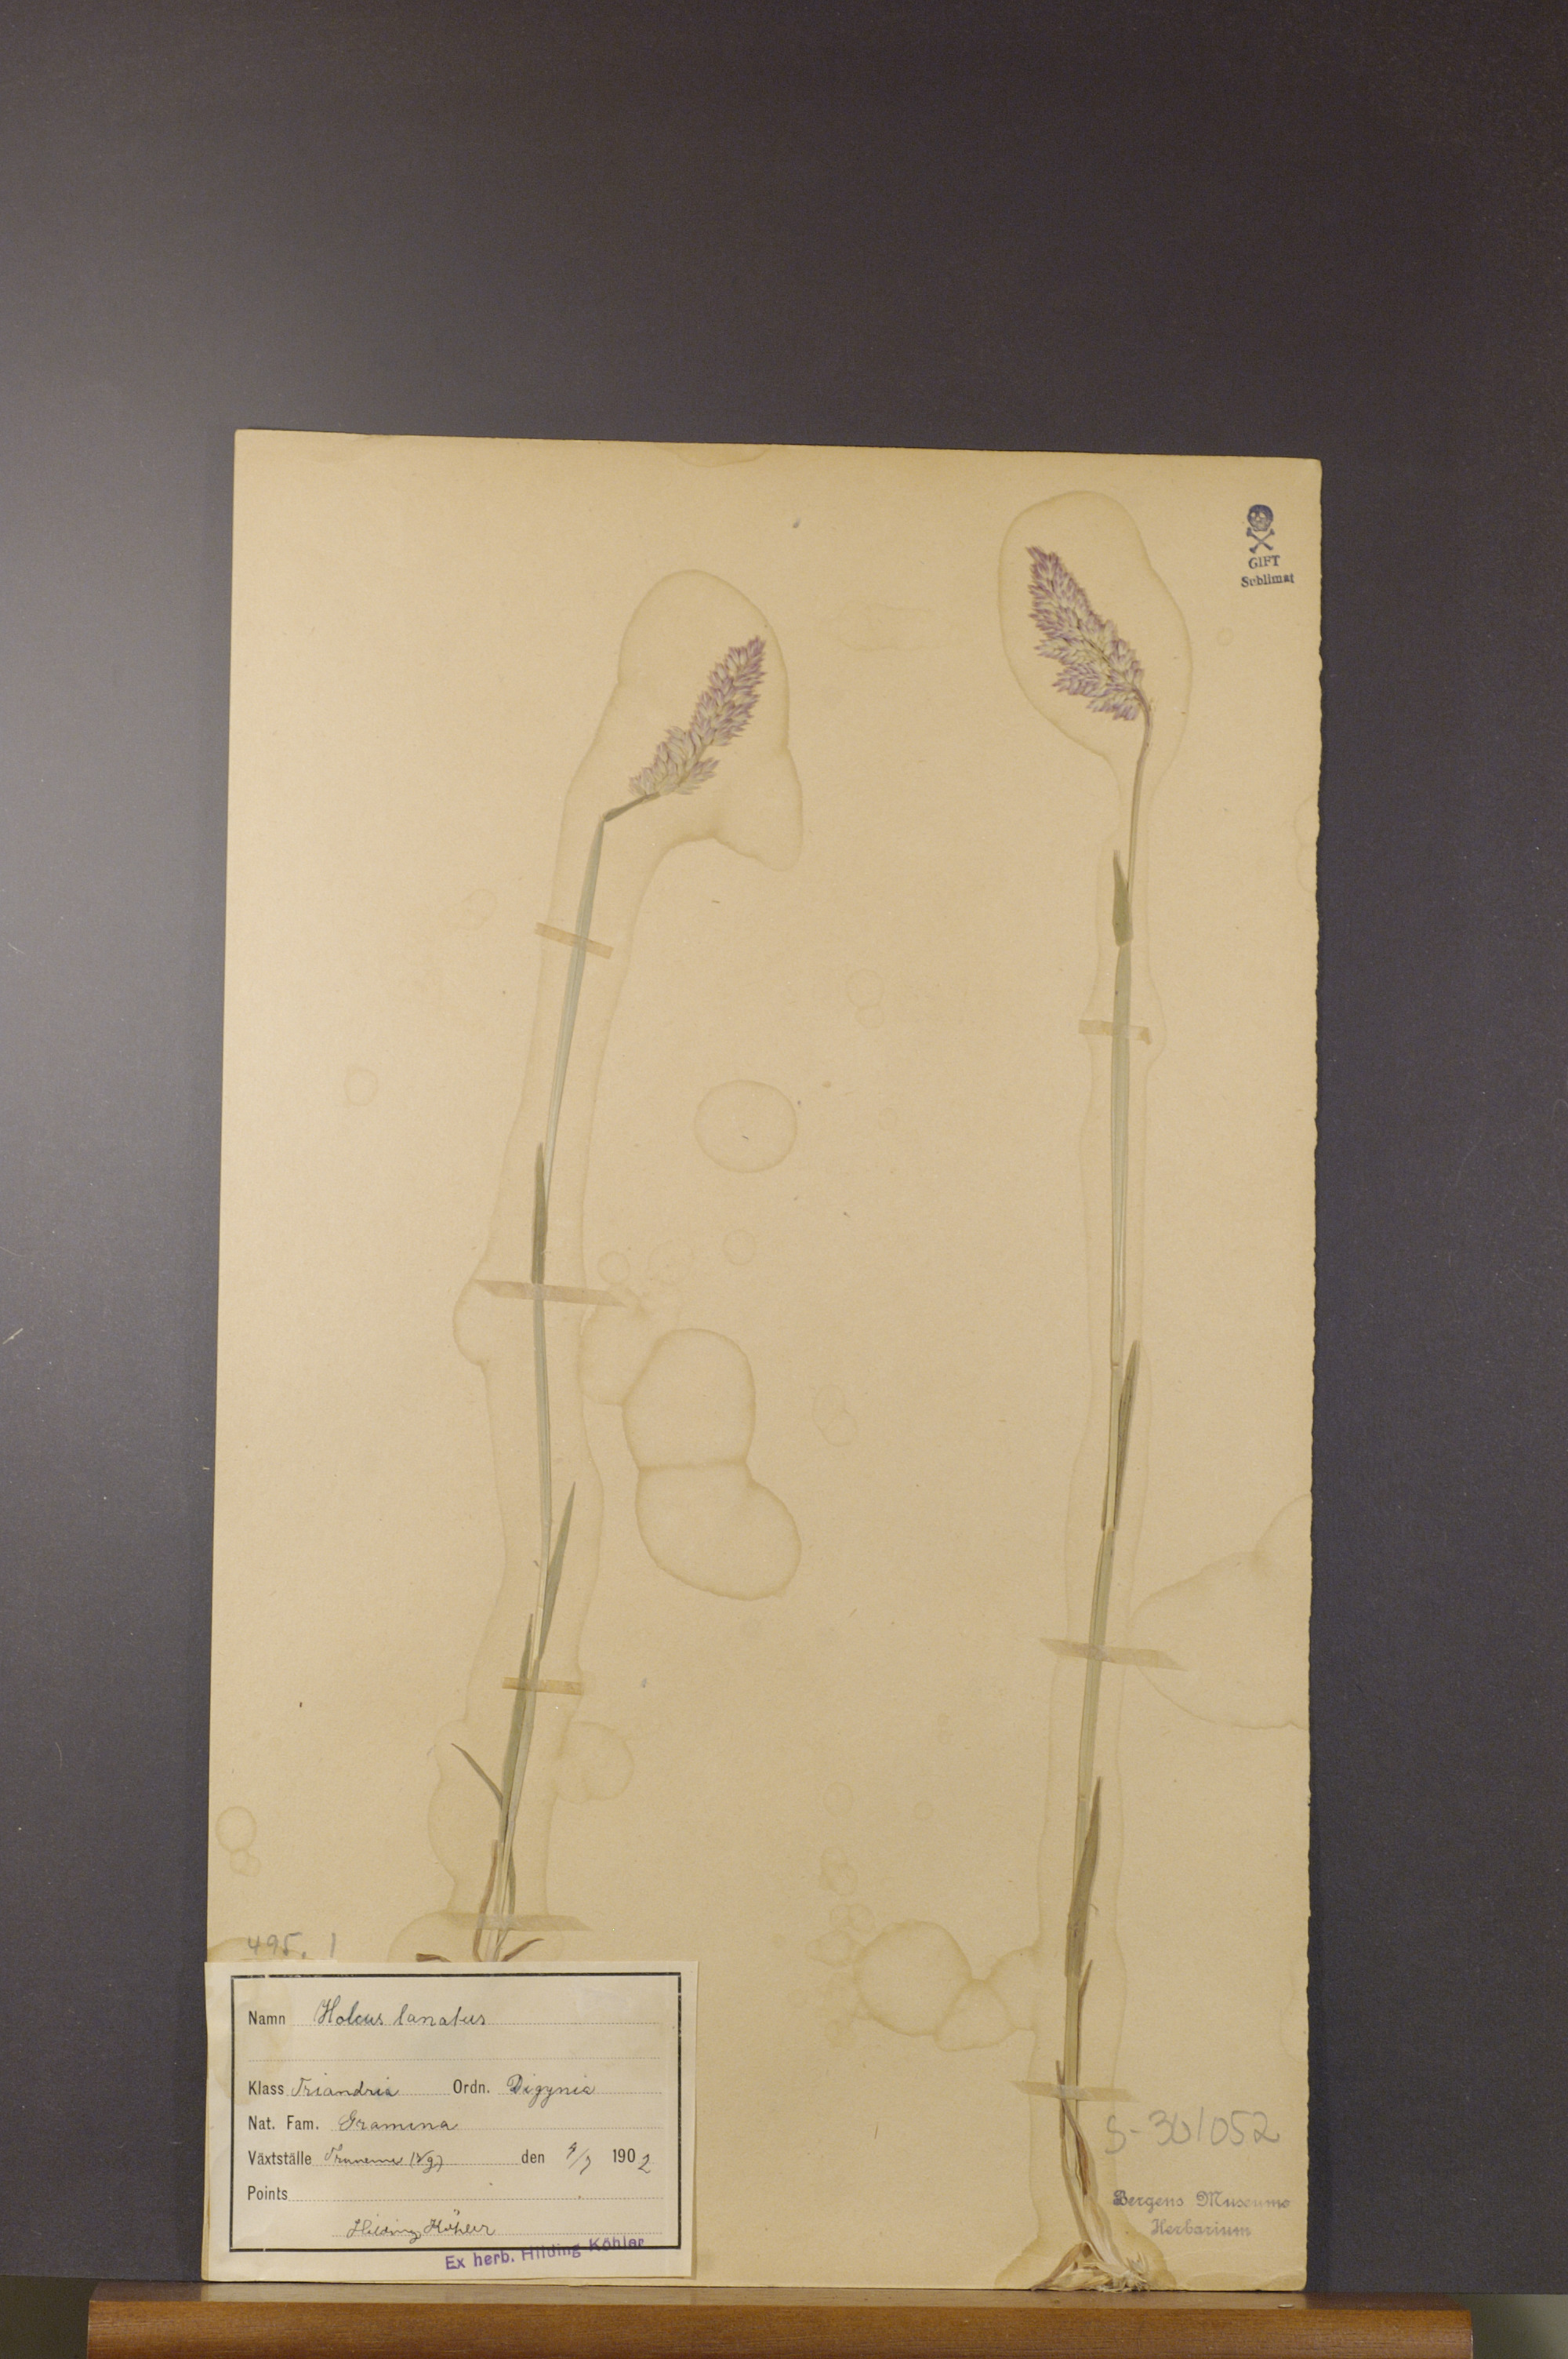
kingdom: Plantae
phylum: Tracheophyta
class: Liliopsida
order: Poales
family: Poaceae
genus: Holcus
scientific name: Holcus lanatus
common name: Yorkshire-fog
